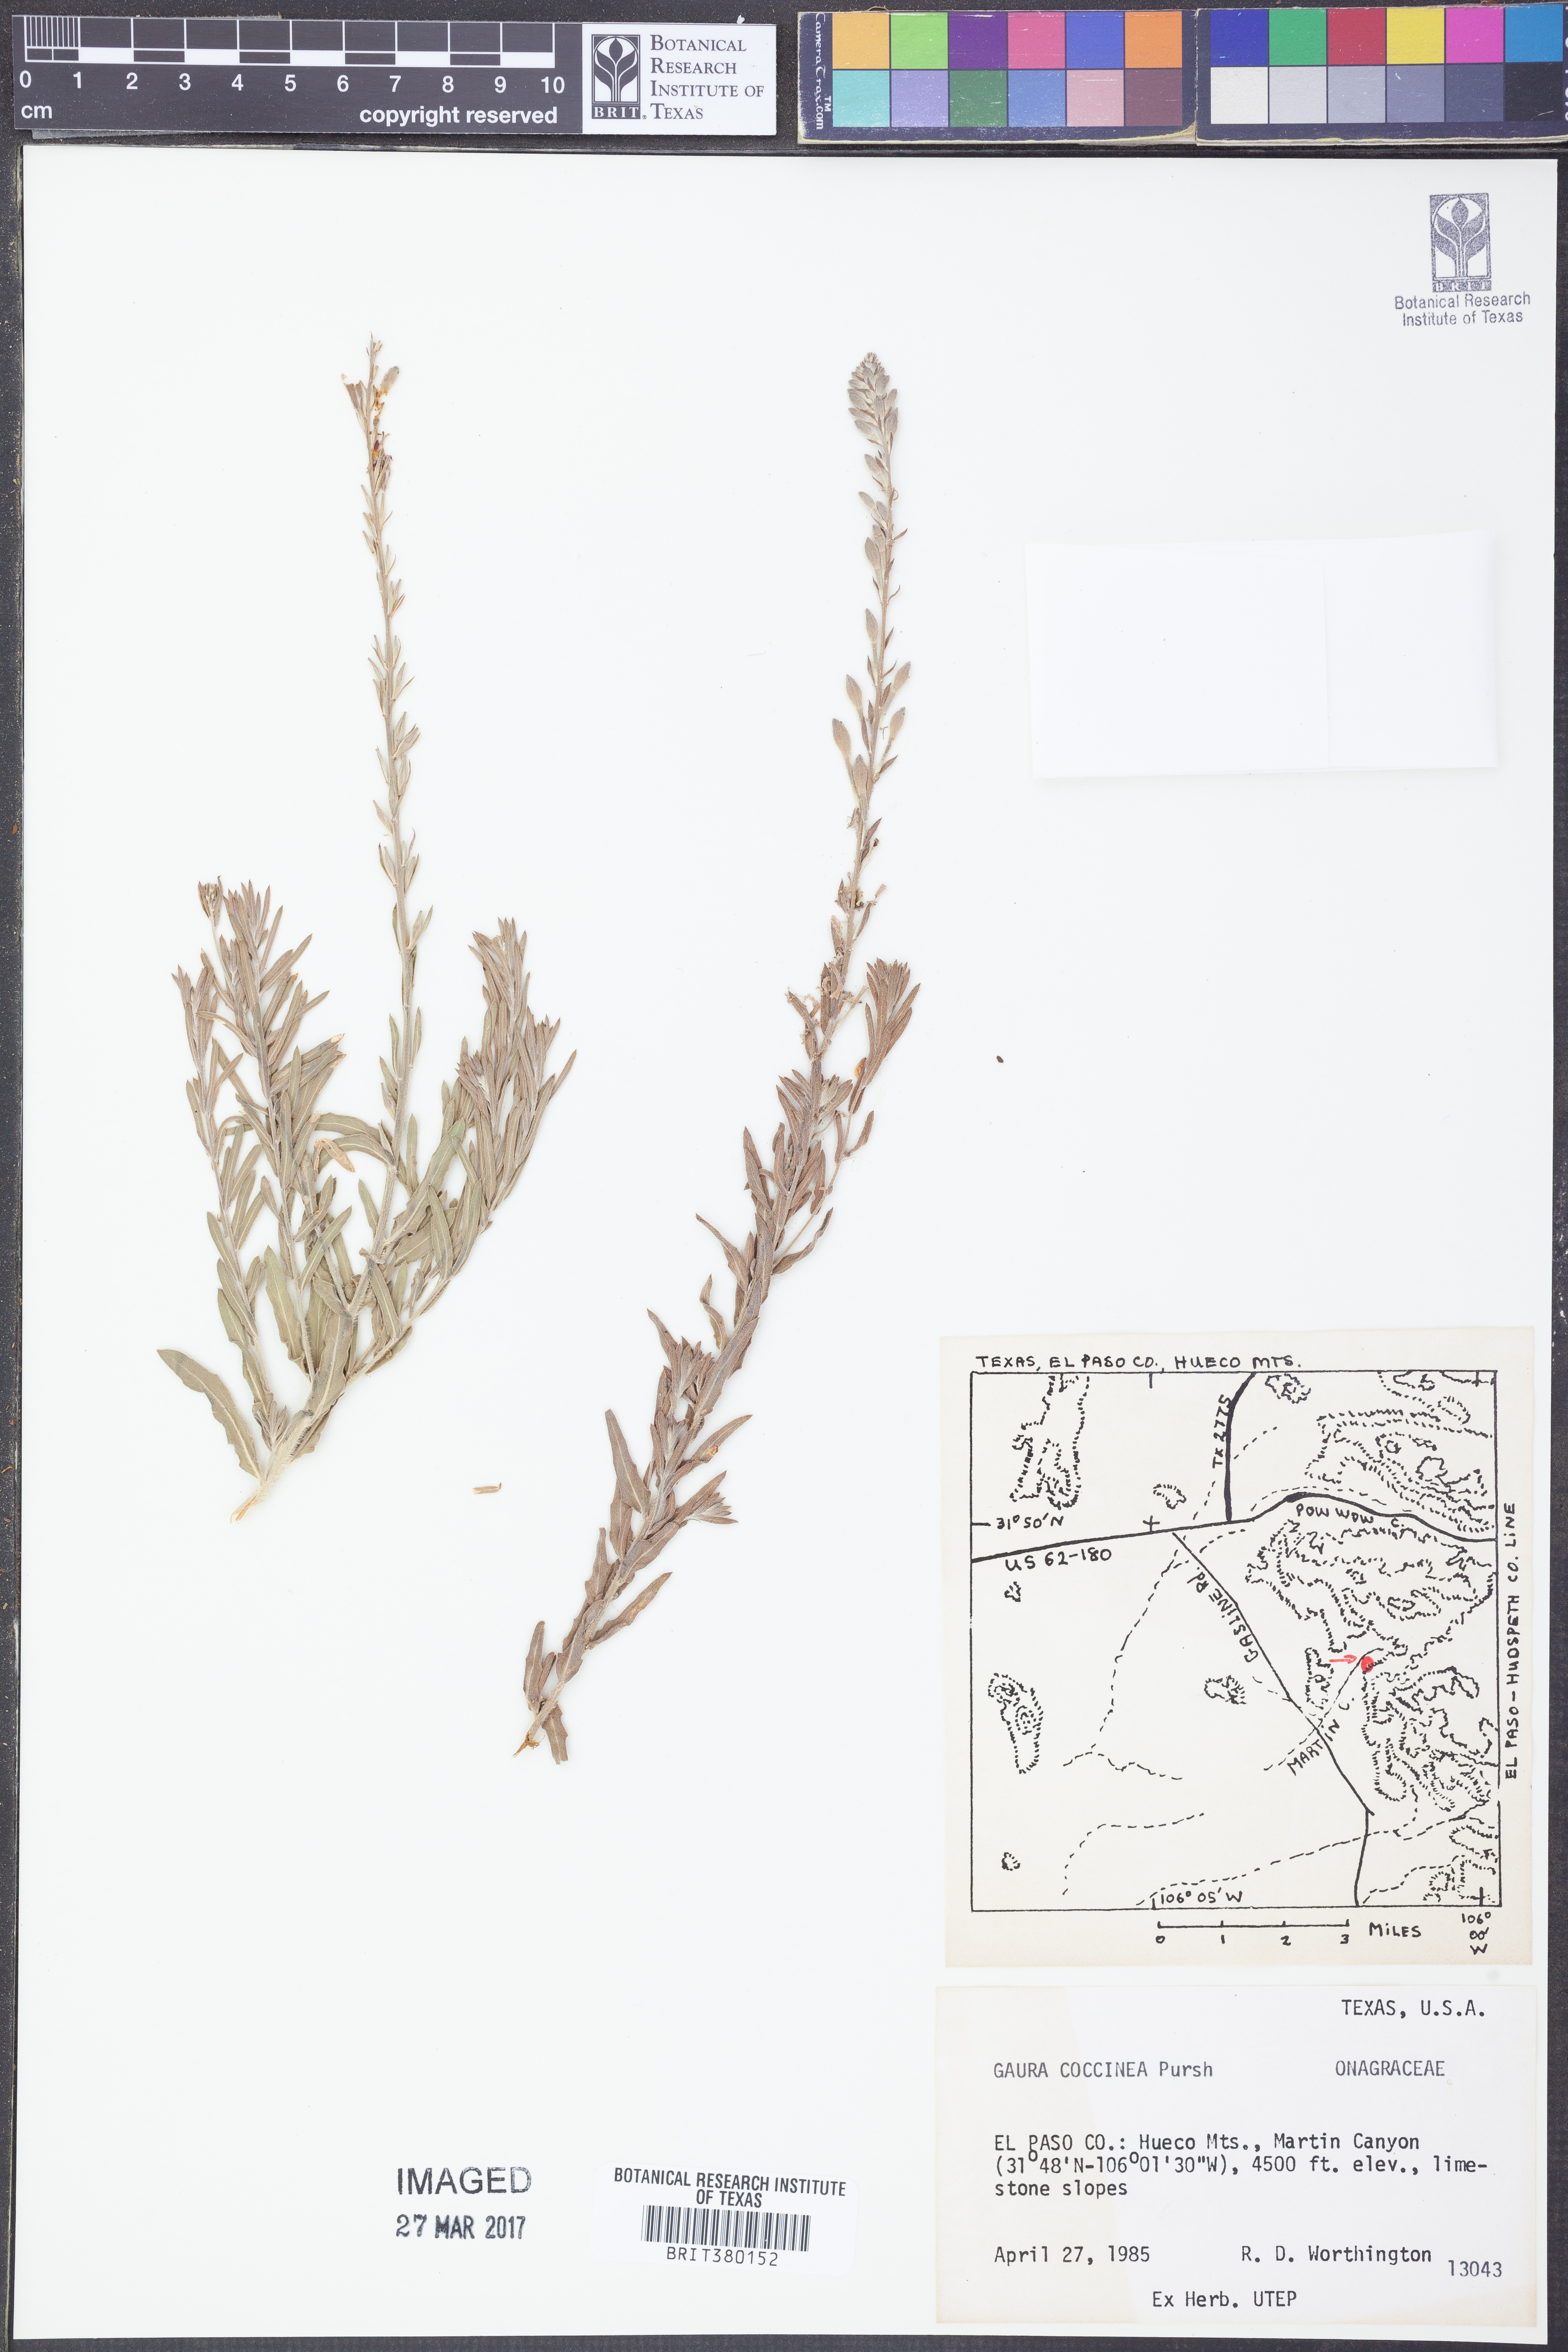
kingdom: Plantae
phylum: Tracheophyta
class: Magnoliopsida
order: Myrtales
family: Onagraceae
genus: Oenothera
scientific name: Oenothera suffrutescens
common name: Scarlet beeblossom
